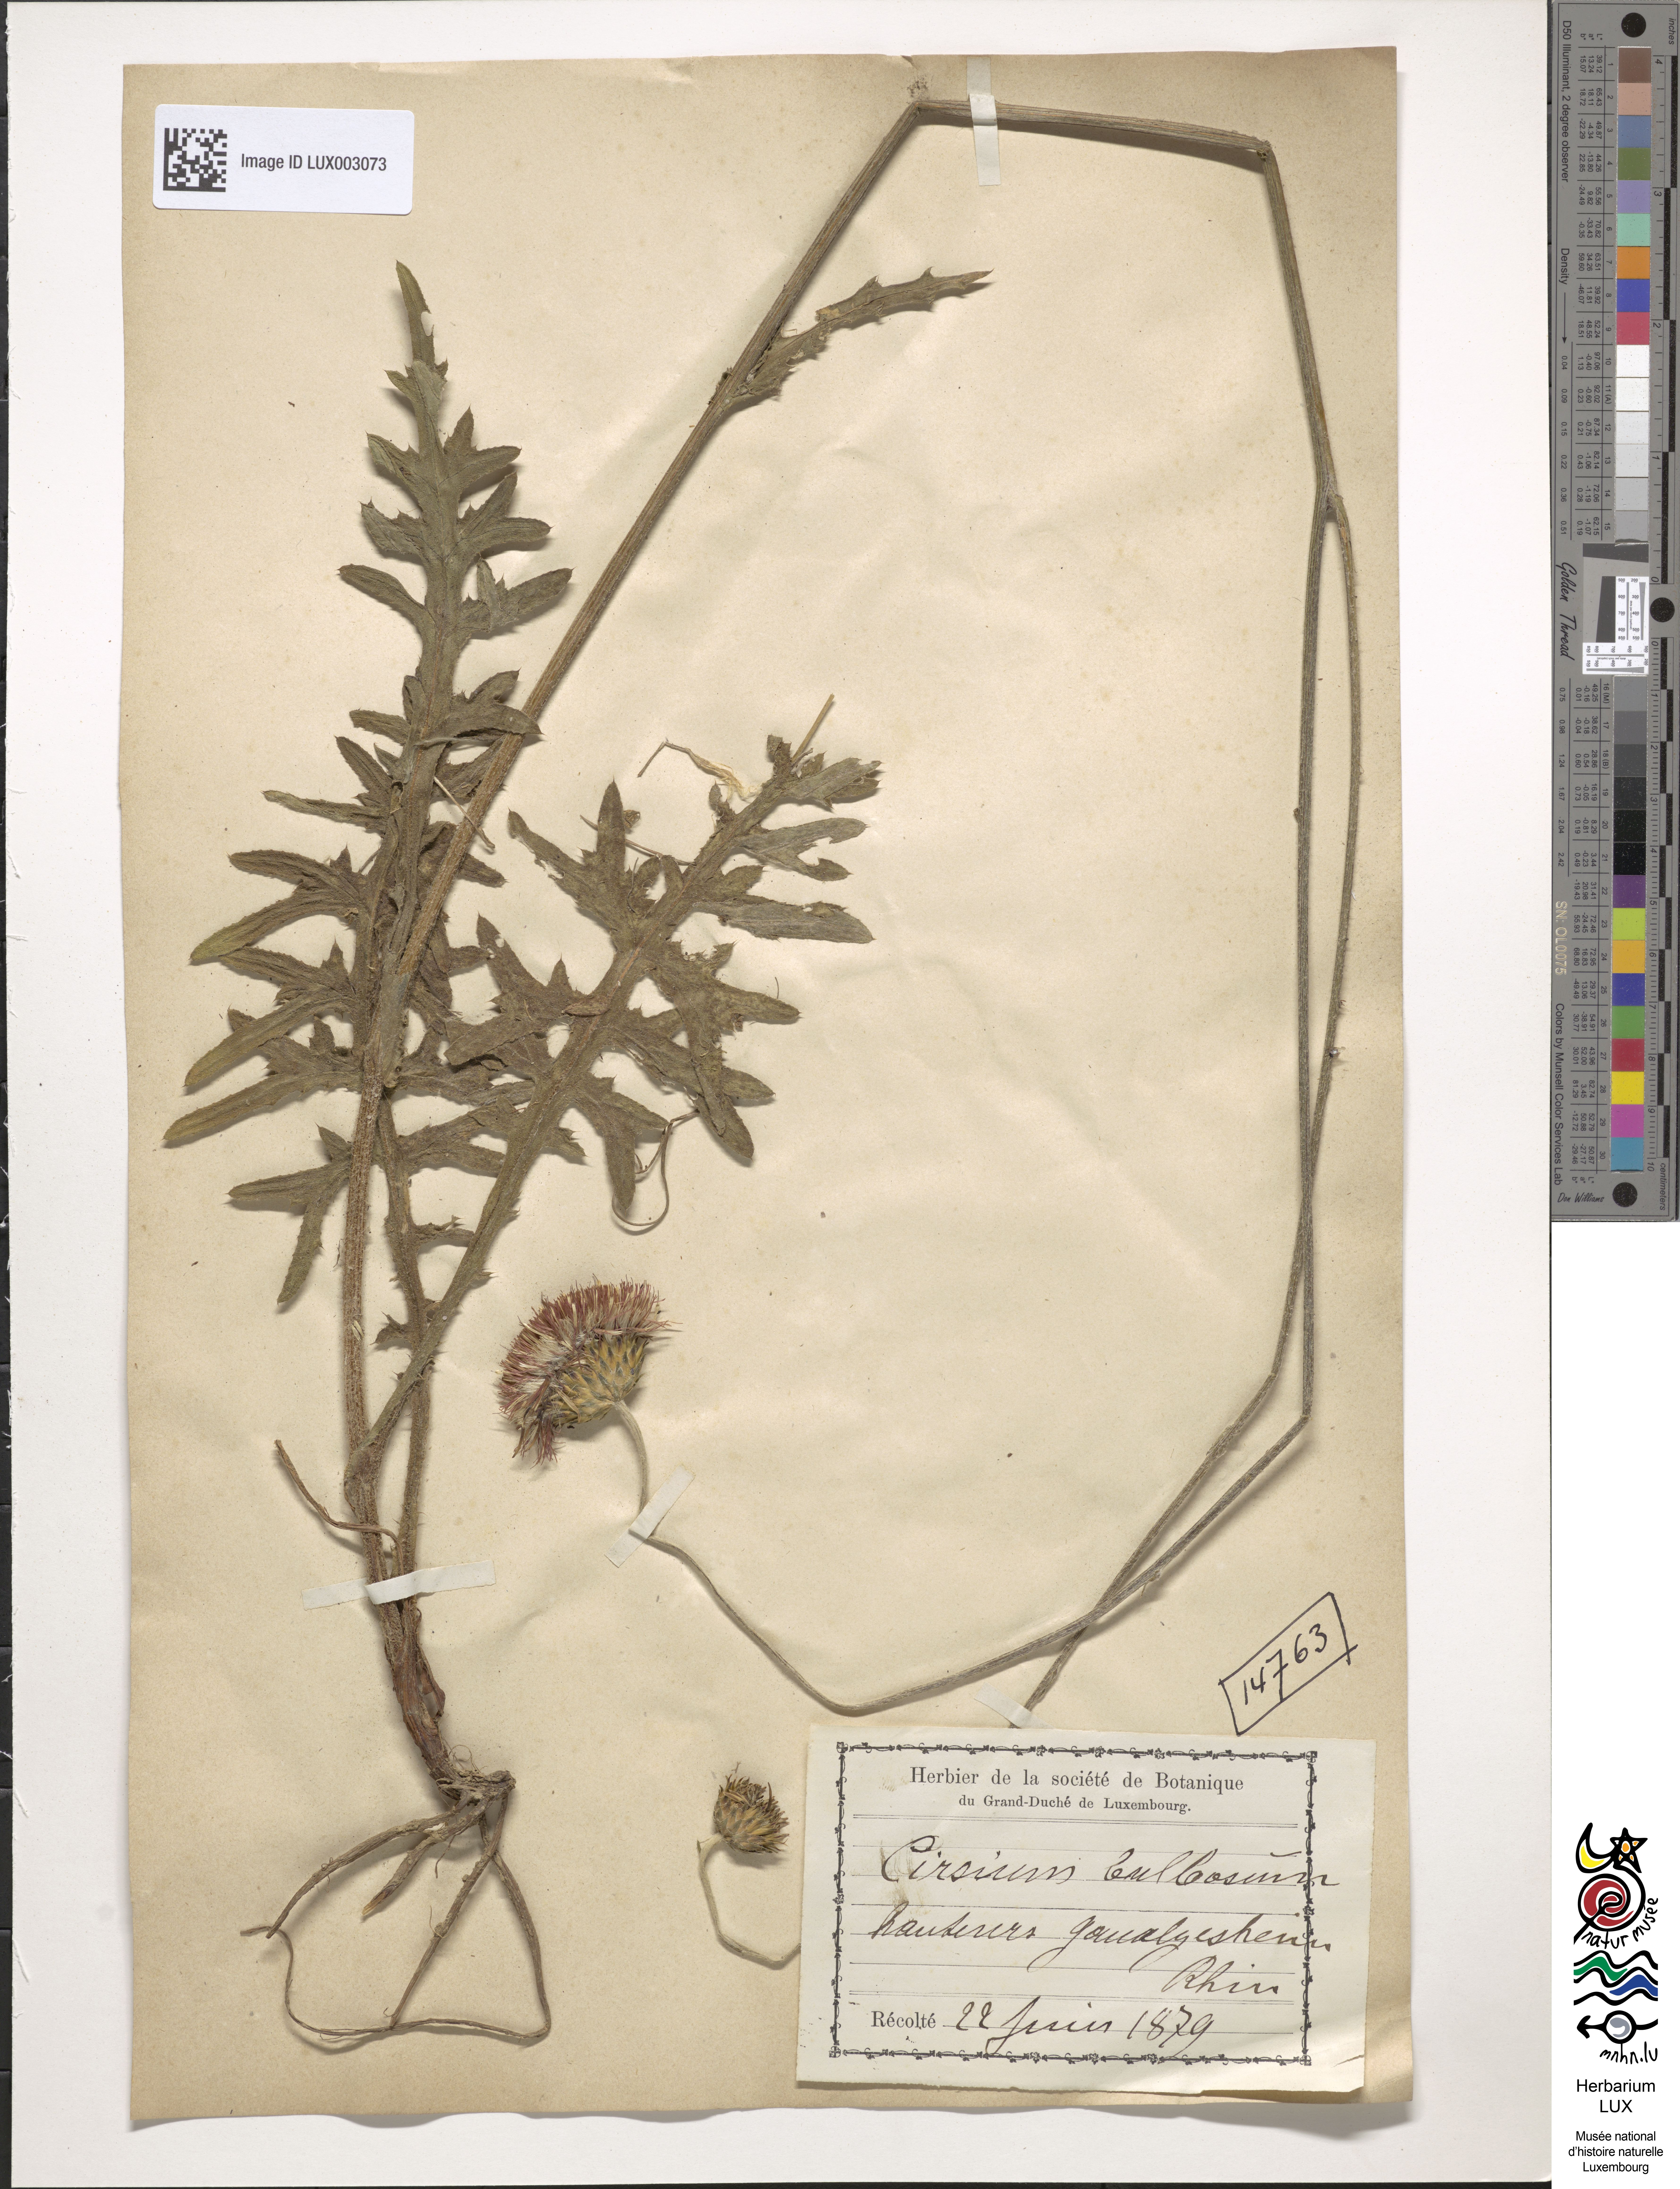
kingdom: Plantae
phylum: Tracheophyta
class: Magnoliopsida
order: Asterales
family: Asteraceae
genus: Cirsium
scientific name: Cirsium tuberosum
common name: Tuberous thistle
